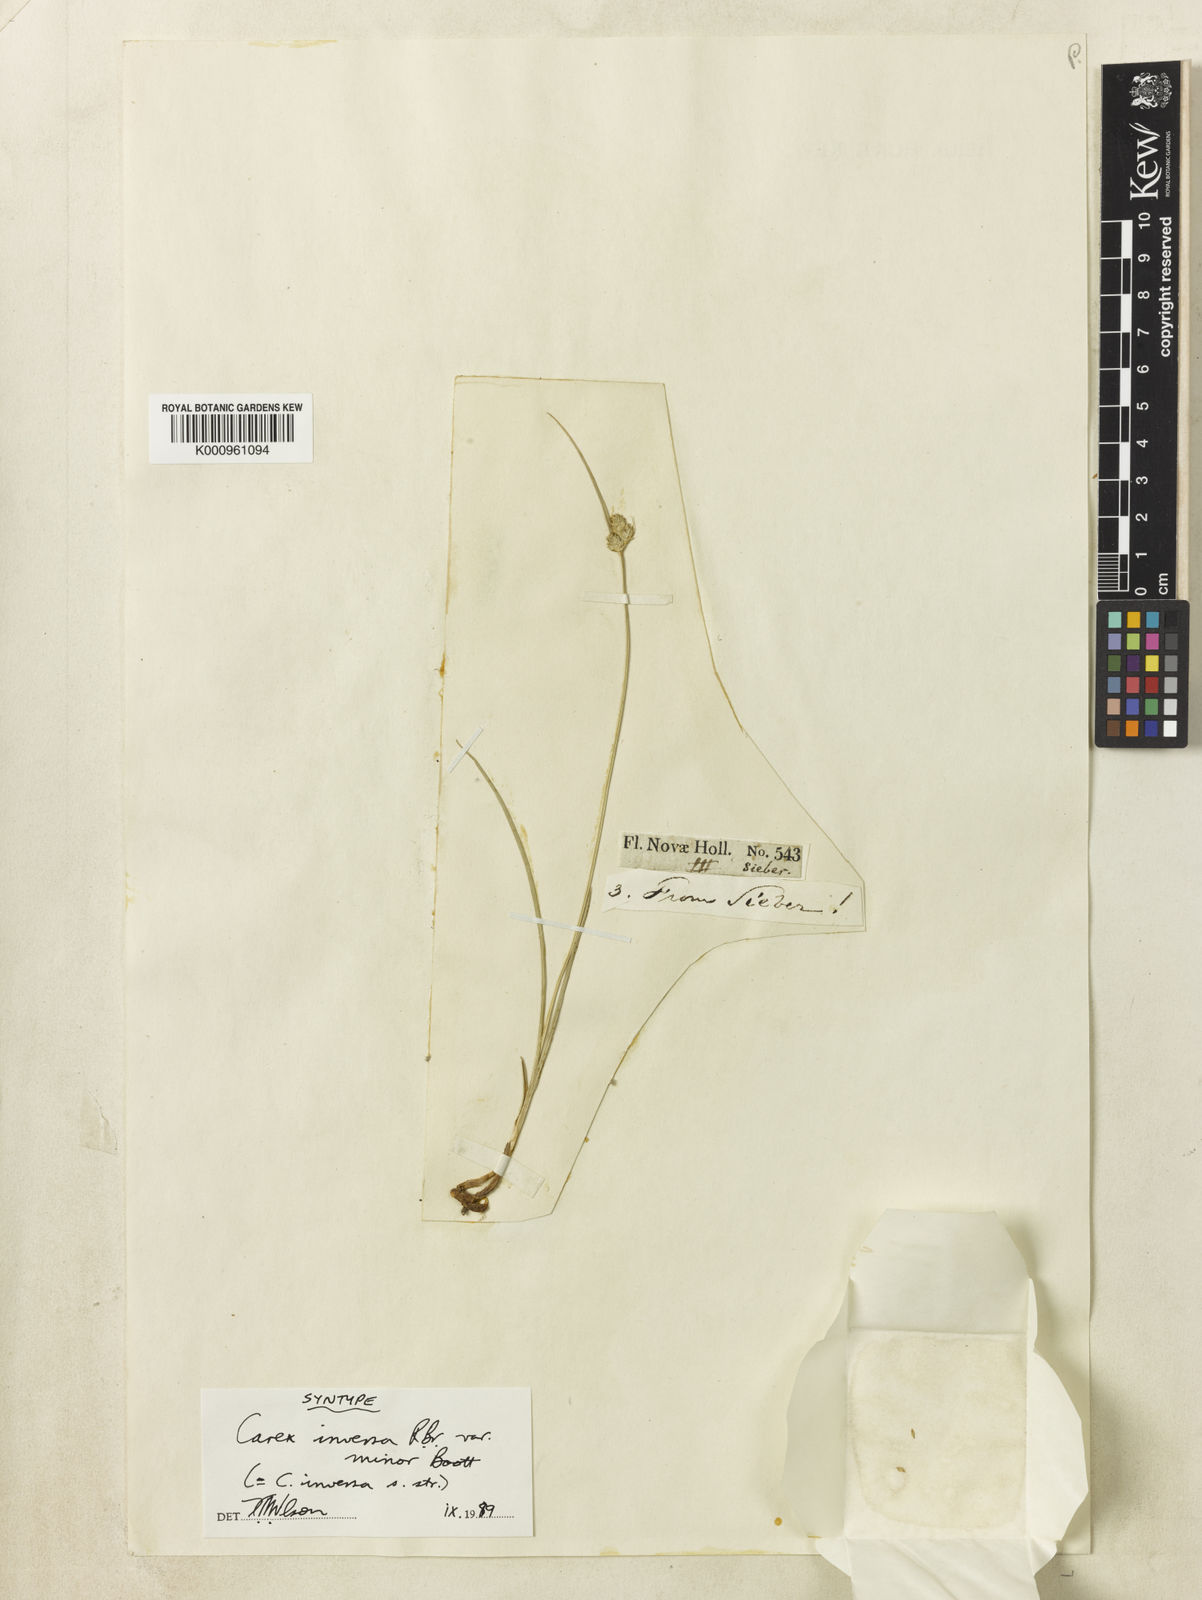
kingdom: Plantae
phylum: Tracheophyta
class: Liliopsida
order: Poales
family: Cyperaceae
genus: Carex
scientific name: Carex inversa
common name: Knob sedge
